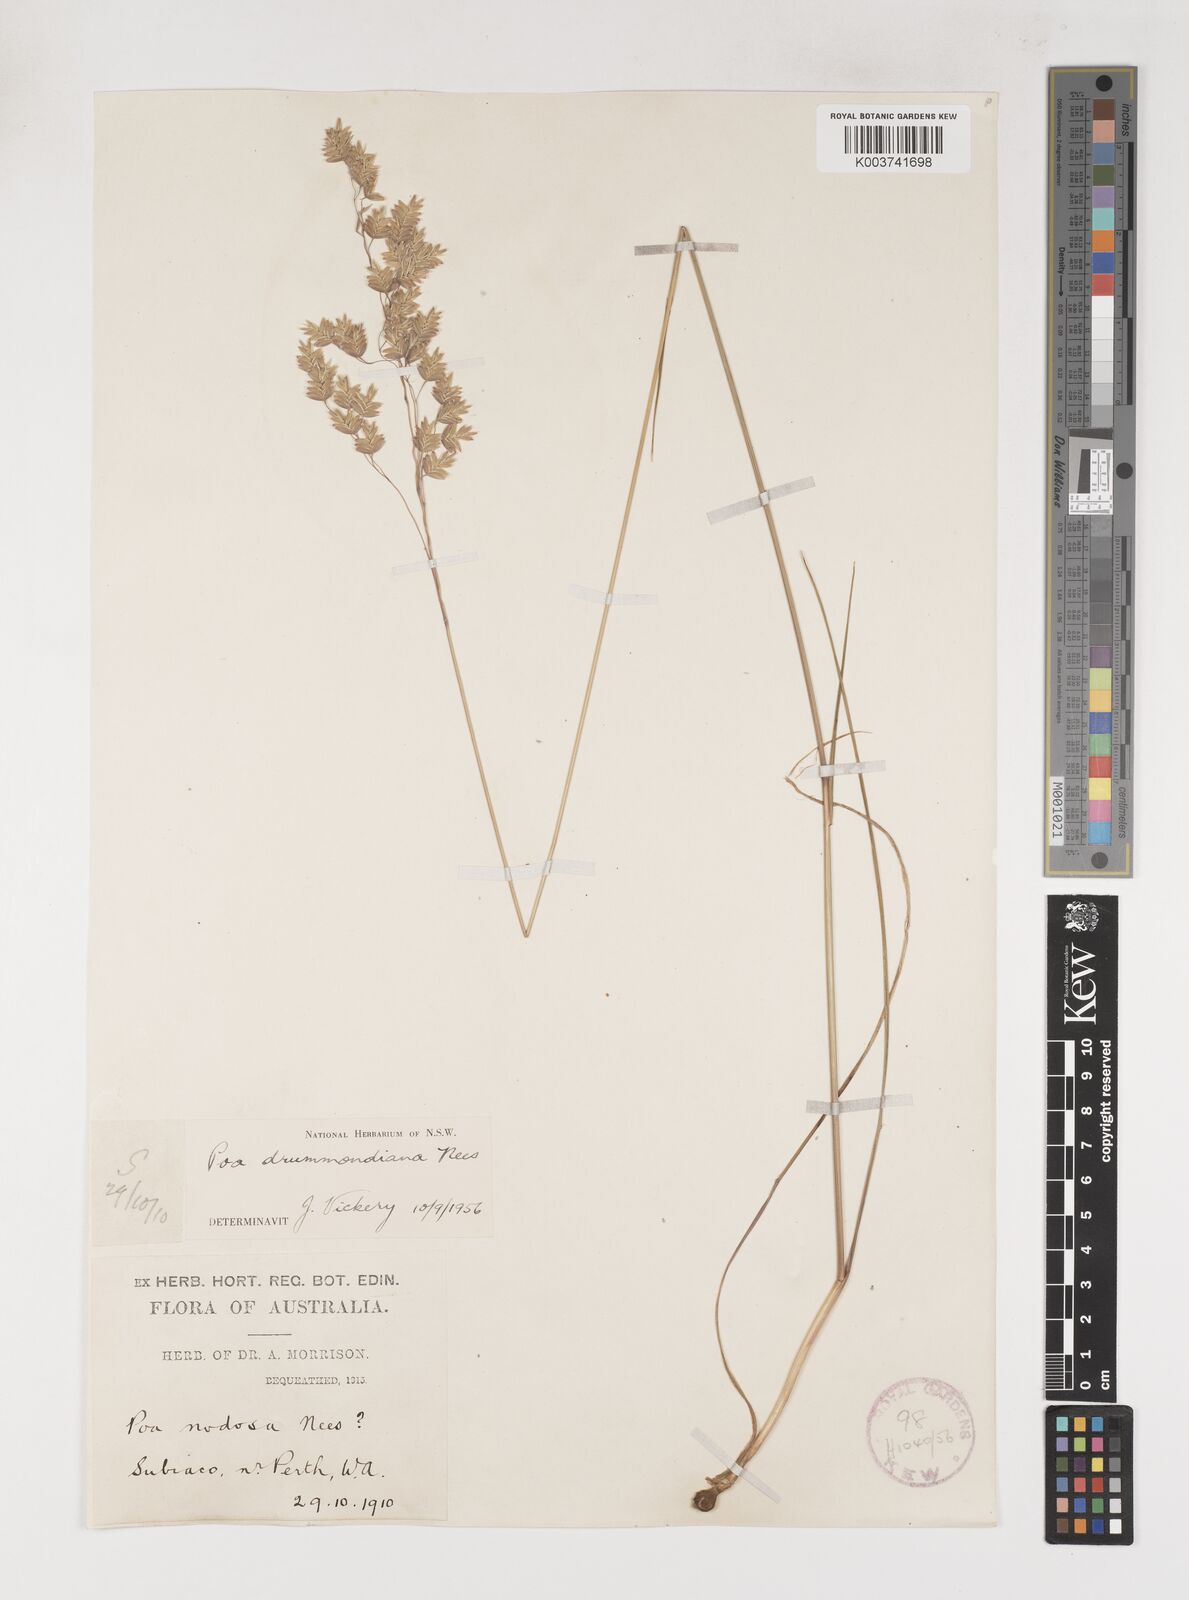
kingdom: Plantae
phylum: Tracheophyta
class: Liliopsida
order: Poales
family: Poaceae
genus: Poa
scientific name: Poa drummondiana
